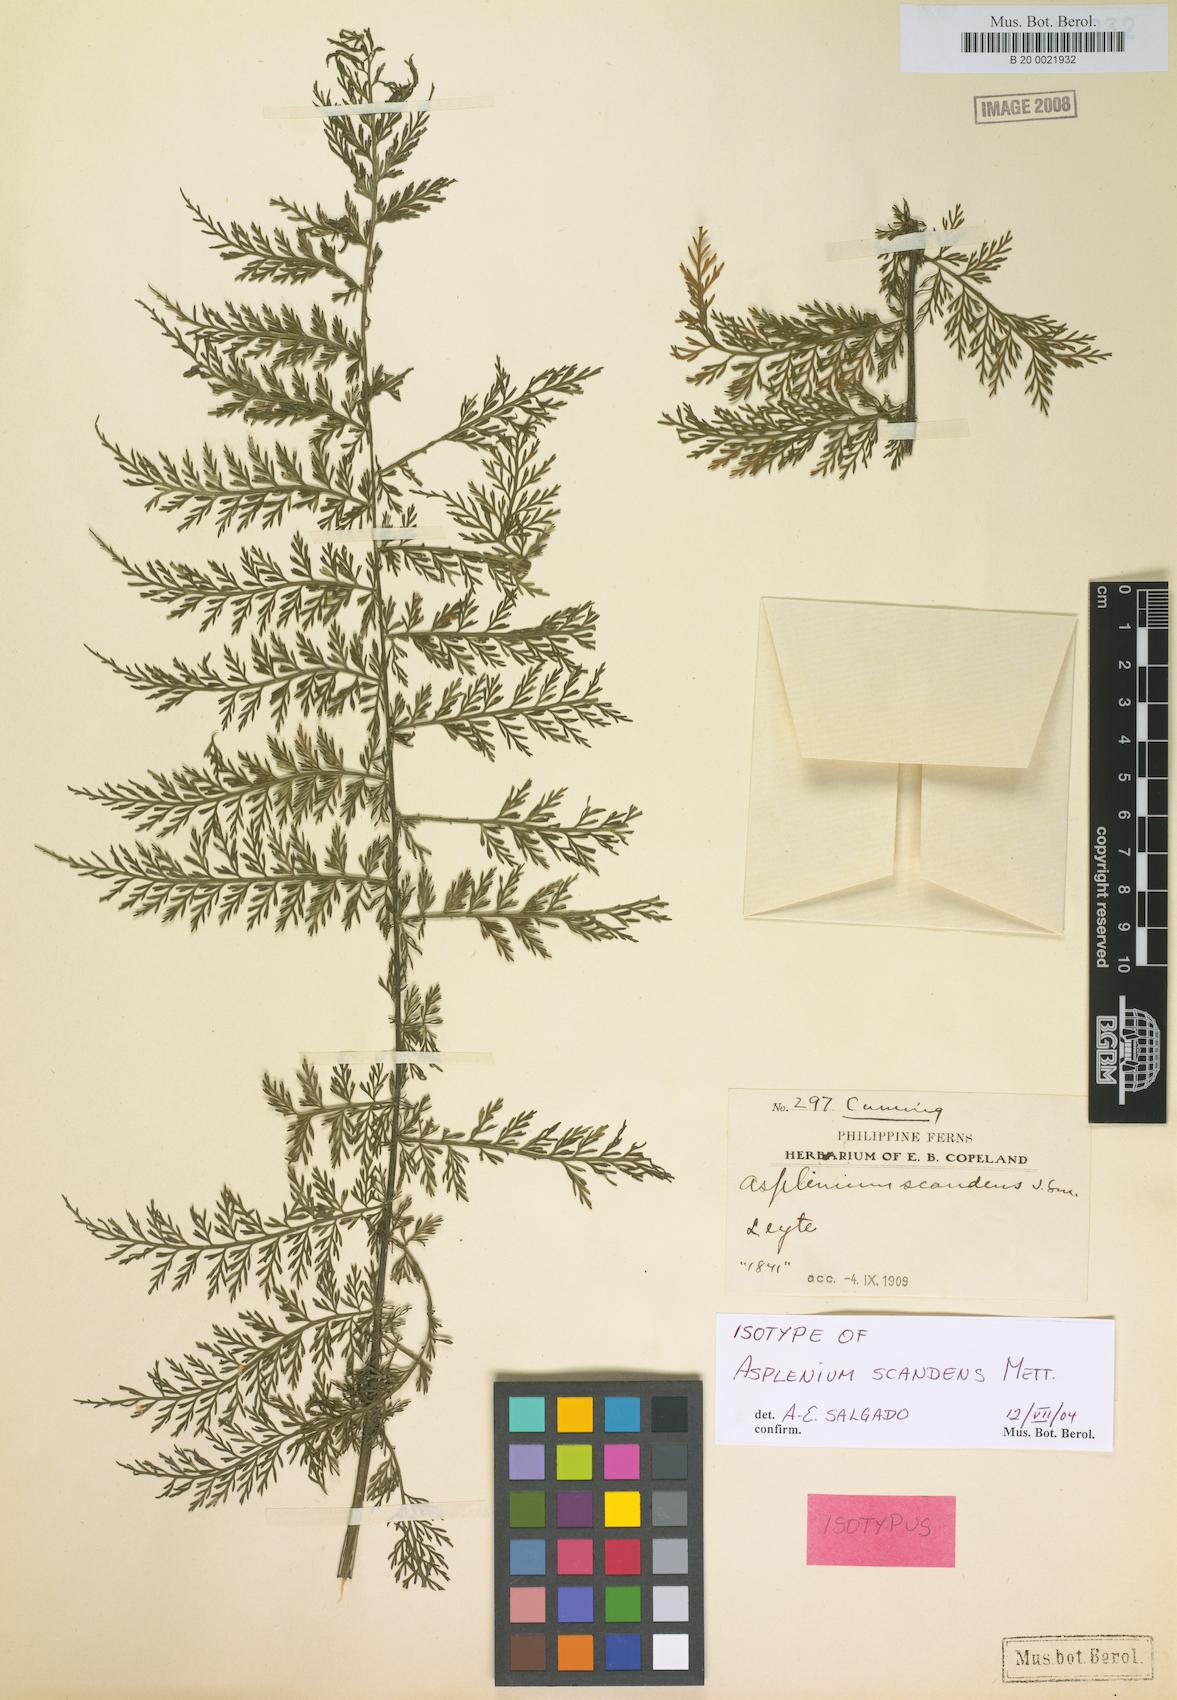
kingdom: Plantae
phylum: Tracheophyta
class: Polypodiopsida
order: Polypodiales
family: Aspleniaceae
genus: Asplenium
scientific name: Asplenium scandens
